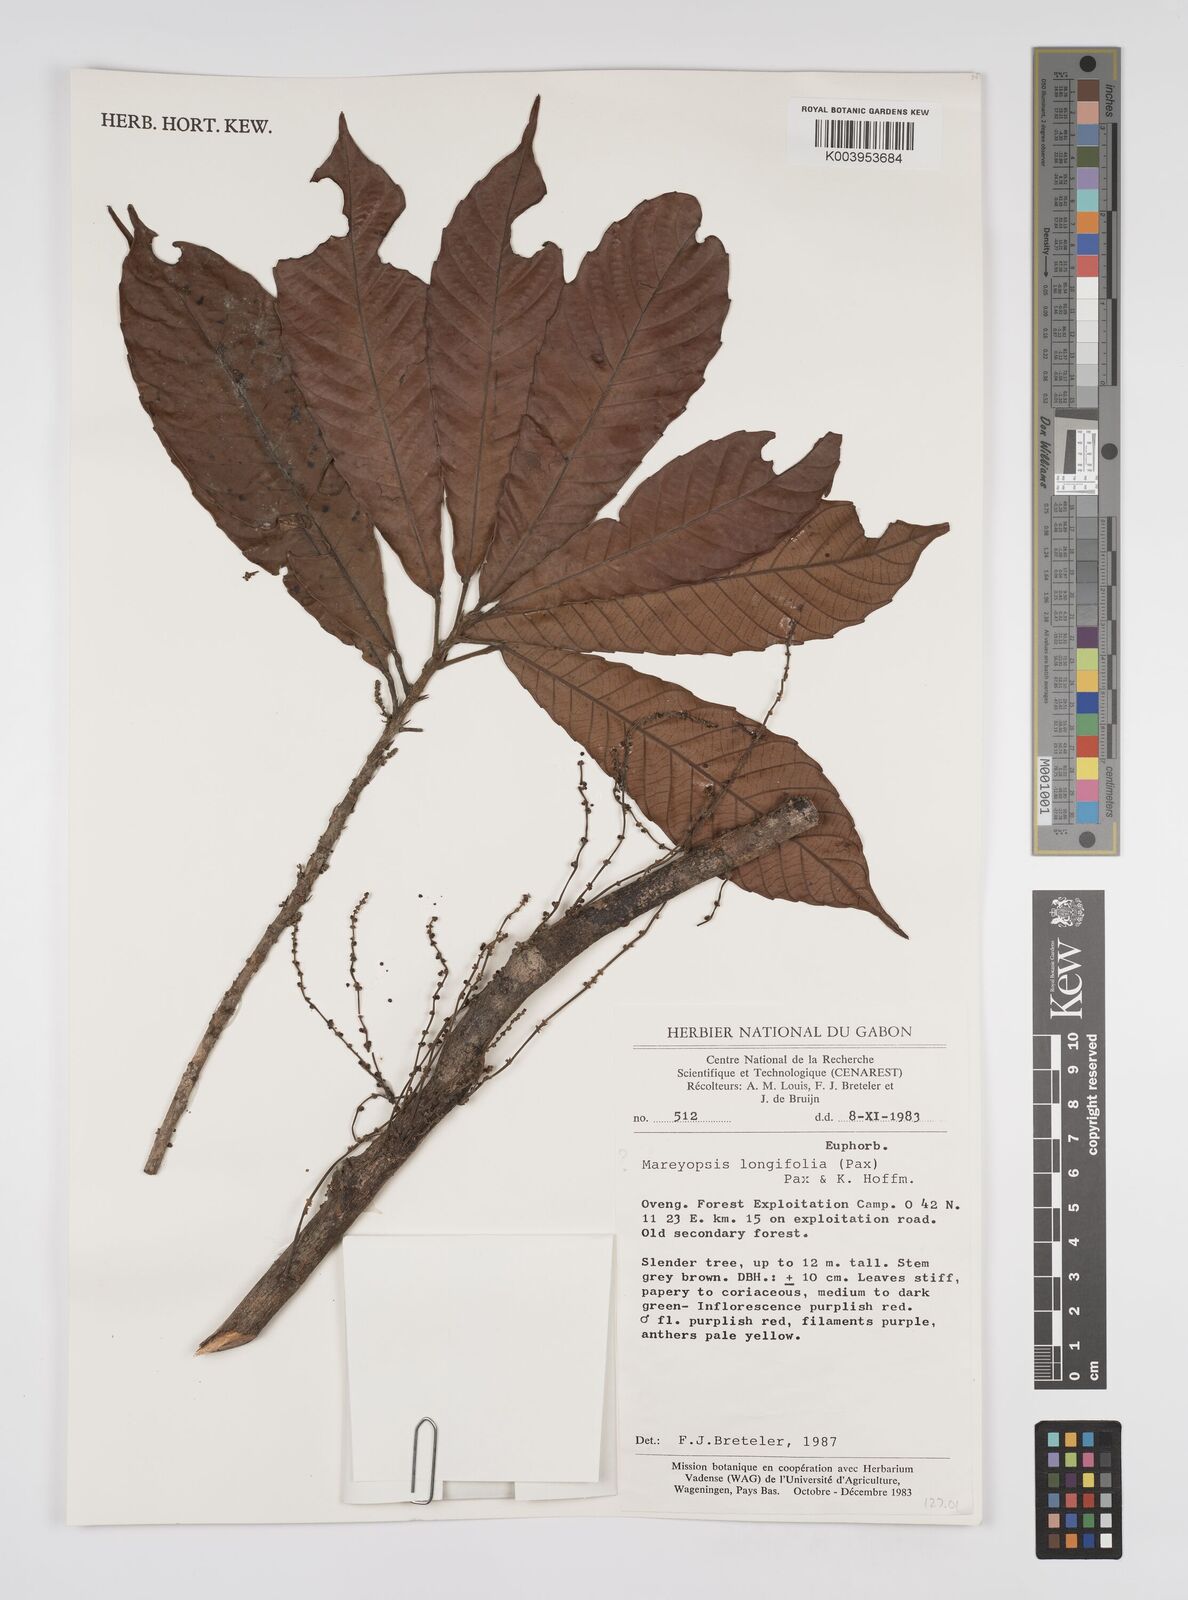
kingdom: Plantae
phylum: Tracheophyta
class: Magnoliopsida
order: Malpighiales
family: Euphorbiaceae
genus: Mareyopsis
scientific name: Mareyopsis longifolia
